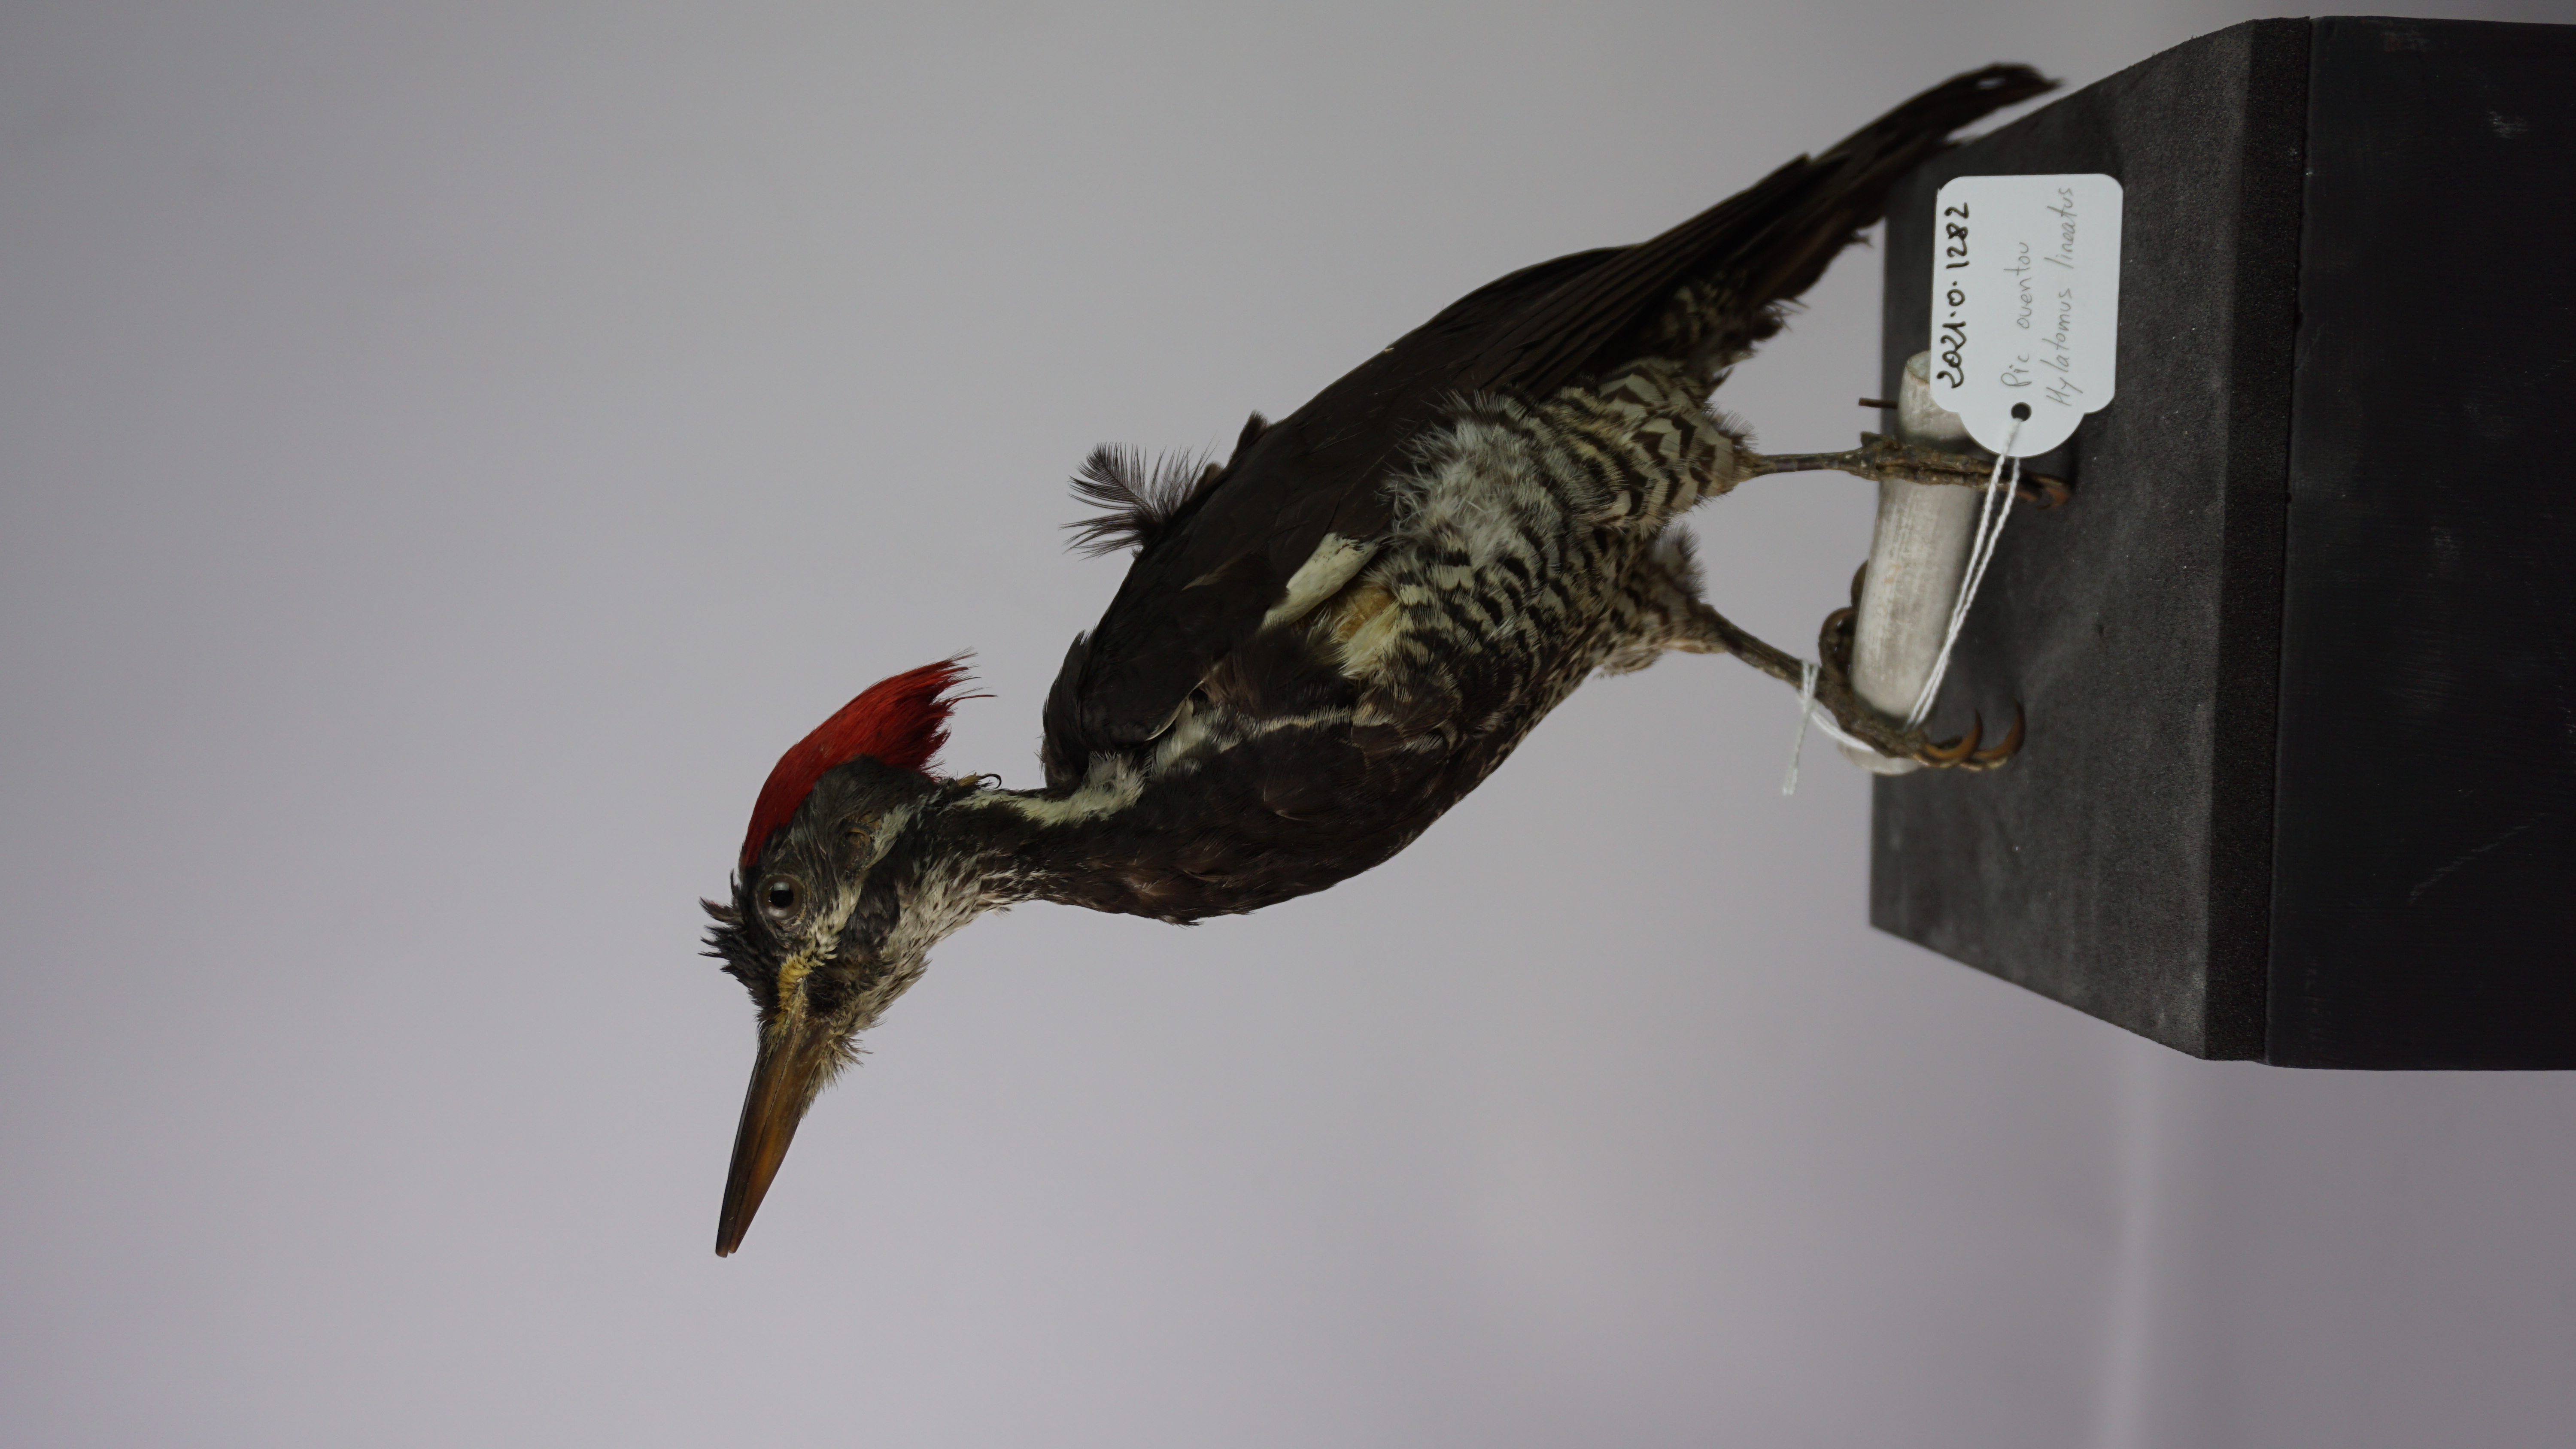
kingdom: Animalia
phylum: Chordata
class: Aves
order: Piciformes
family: Picidae
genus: Dryocopus
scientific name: Dryocopus lineatus
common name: Lineated woodpecker
